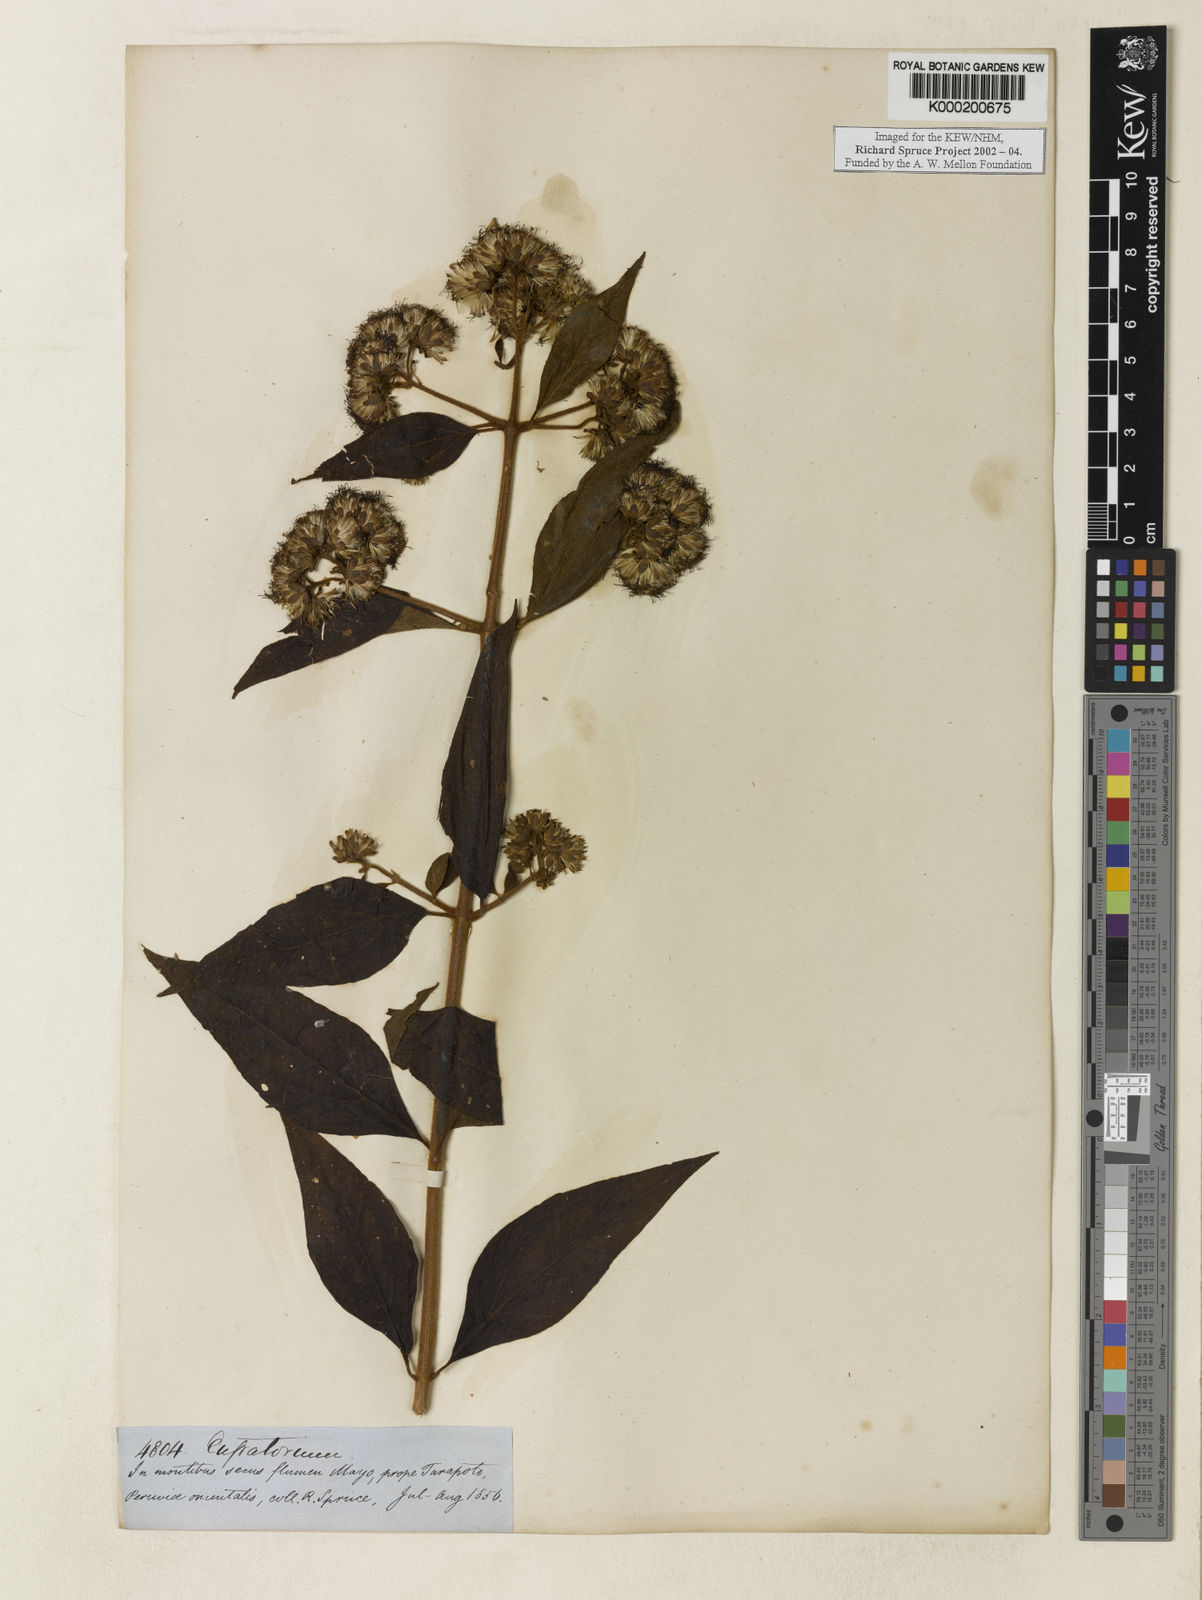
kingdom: Plantae
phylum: Tracheophyta
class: Magnoliopsida
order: Asterales
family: Asteraceae
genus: Eupatorium
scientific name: Eupatorium
